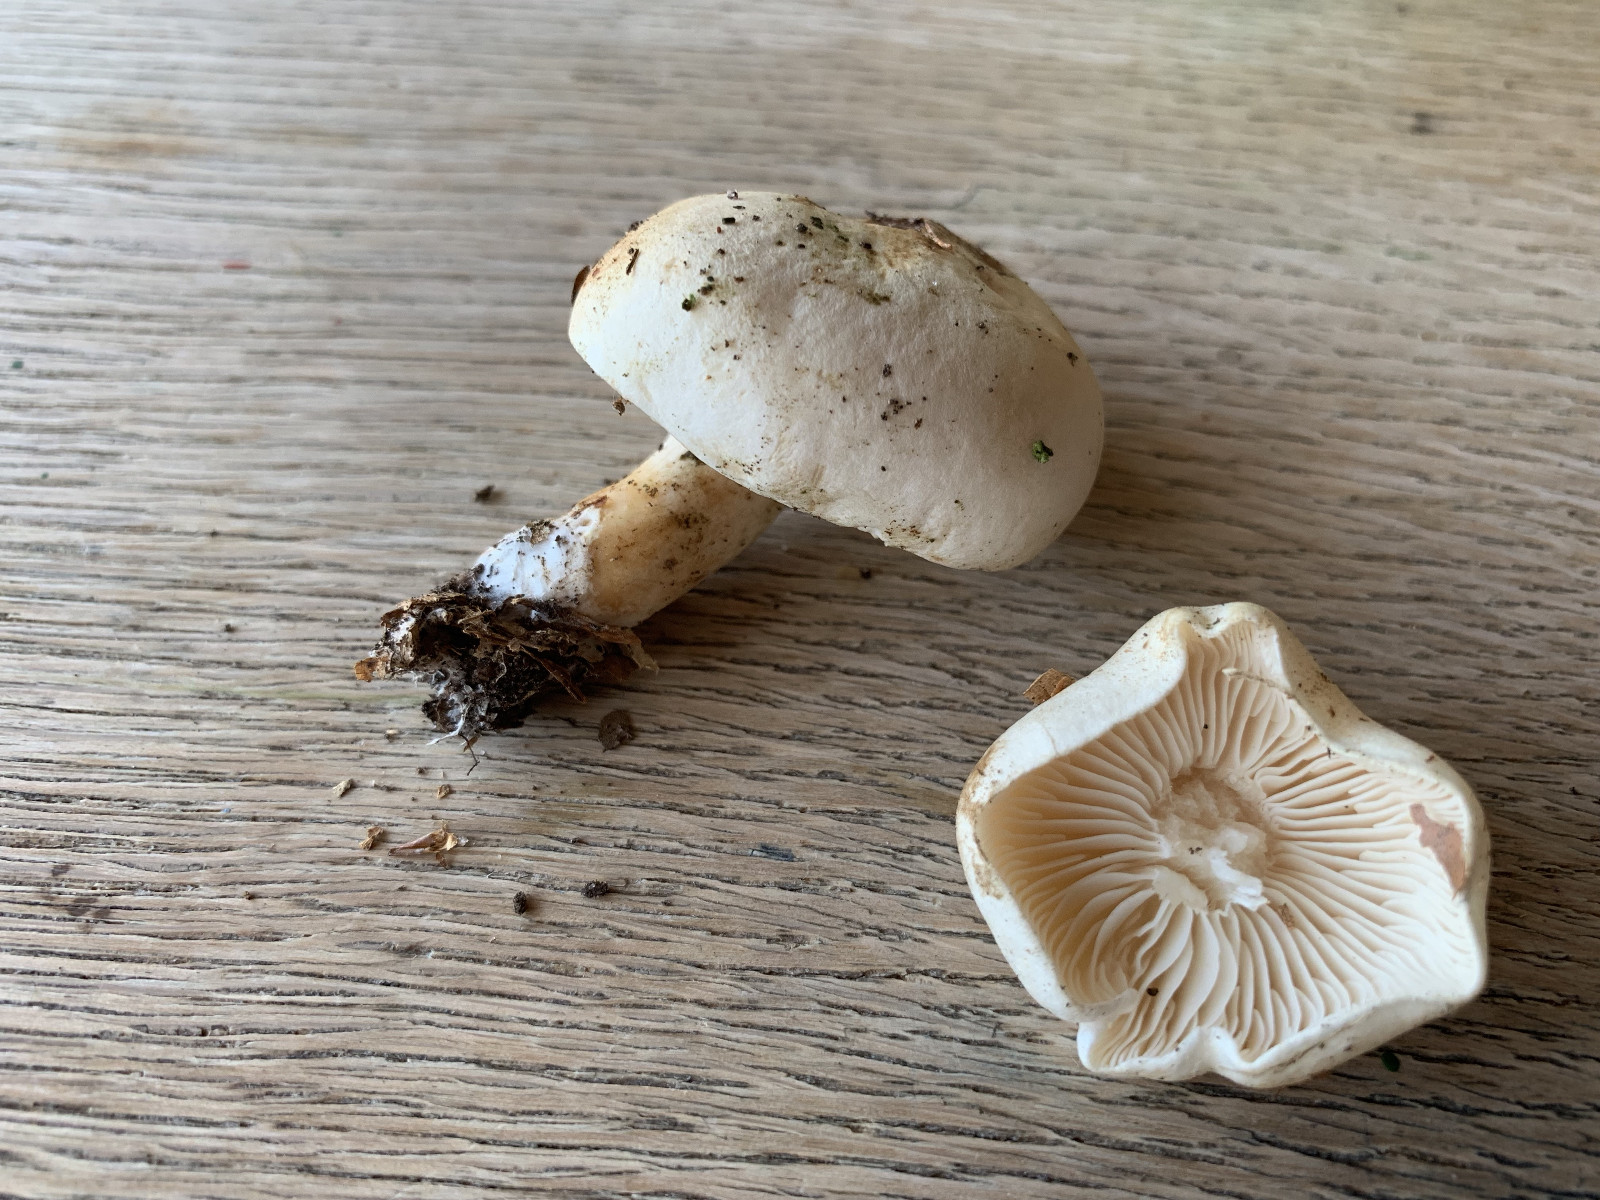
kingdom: Fungi
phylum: Basidiomycota
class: Agaricomycetes
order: Agaricales
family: Tricholomataceae
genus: Tricholoma
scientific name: Tricholoma album
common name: honning-ridderhat
